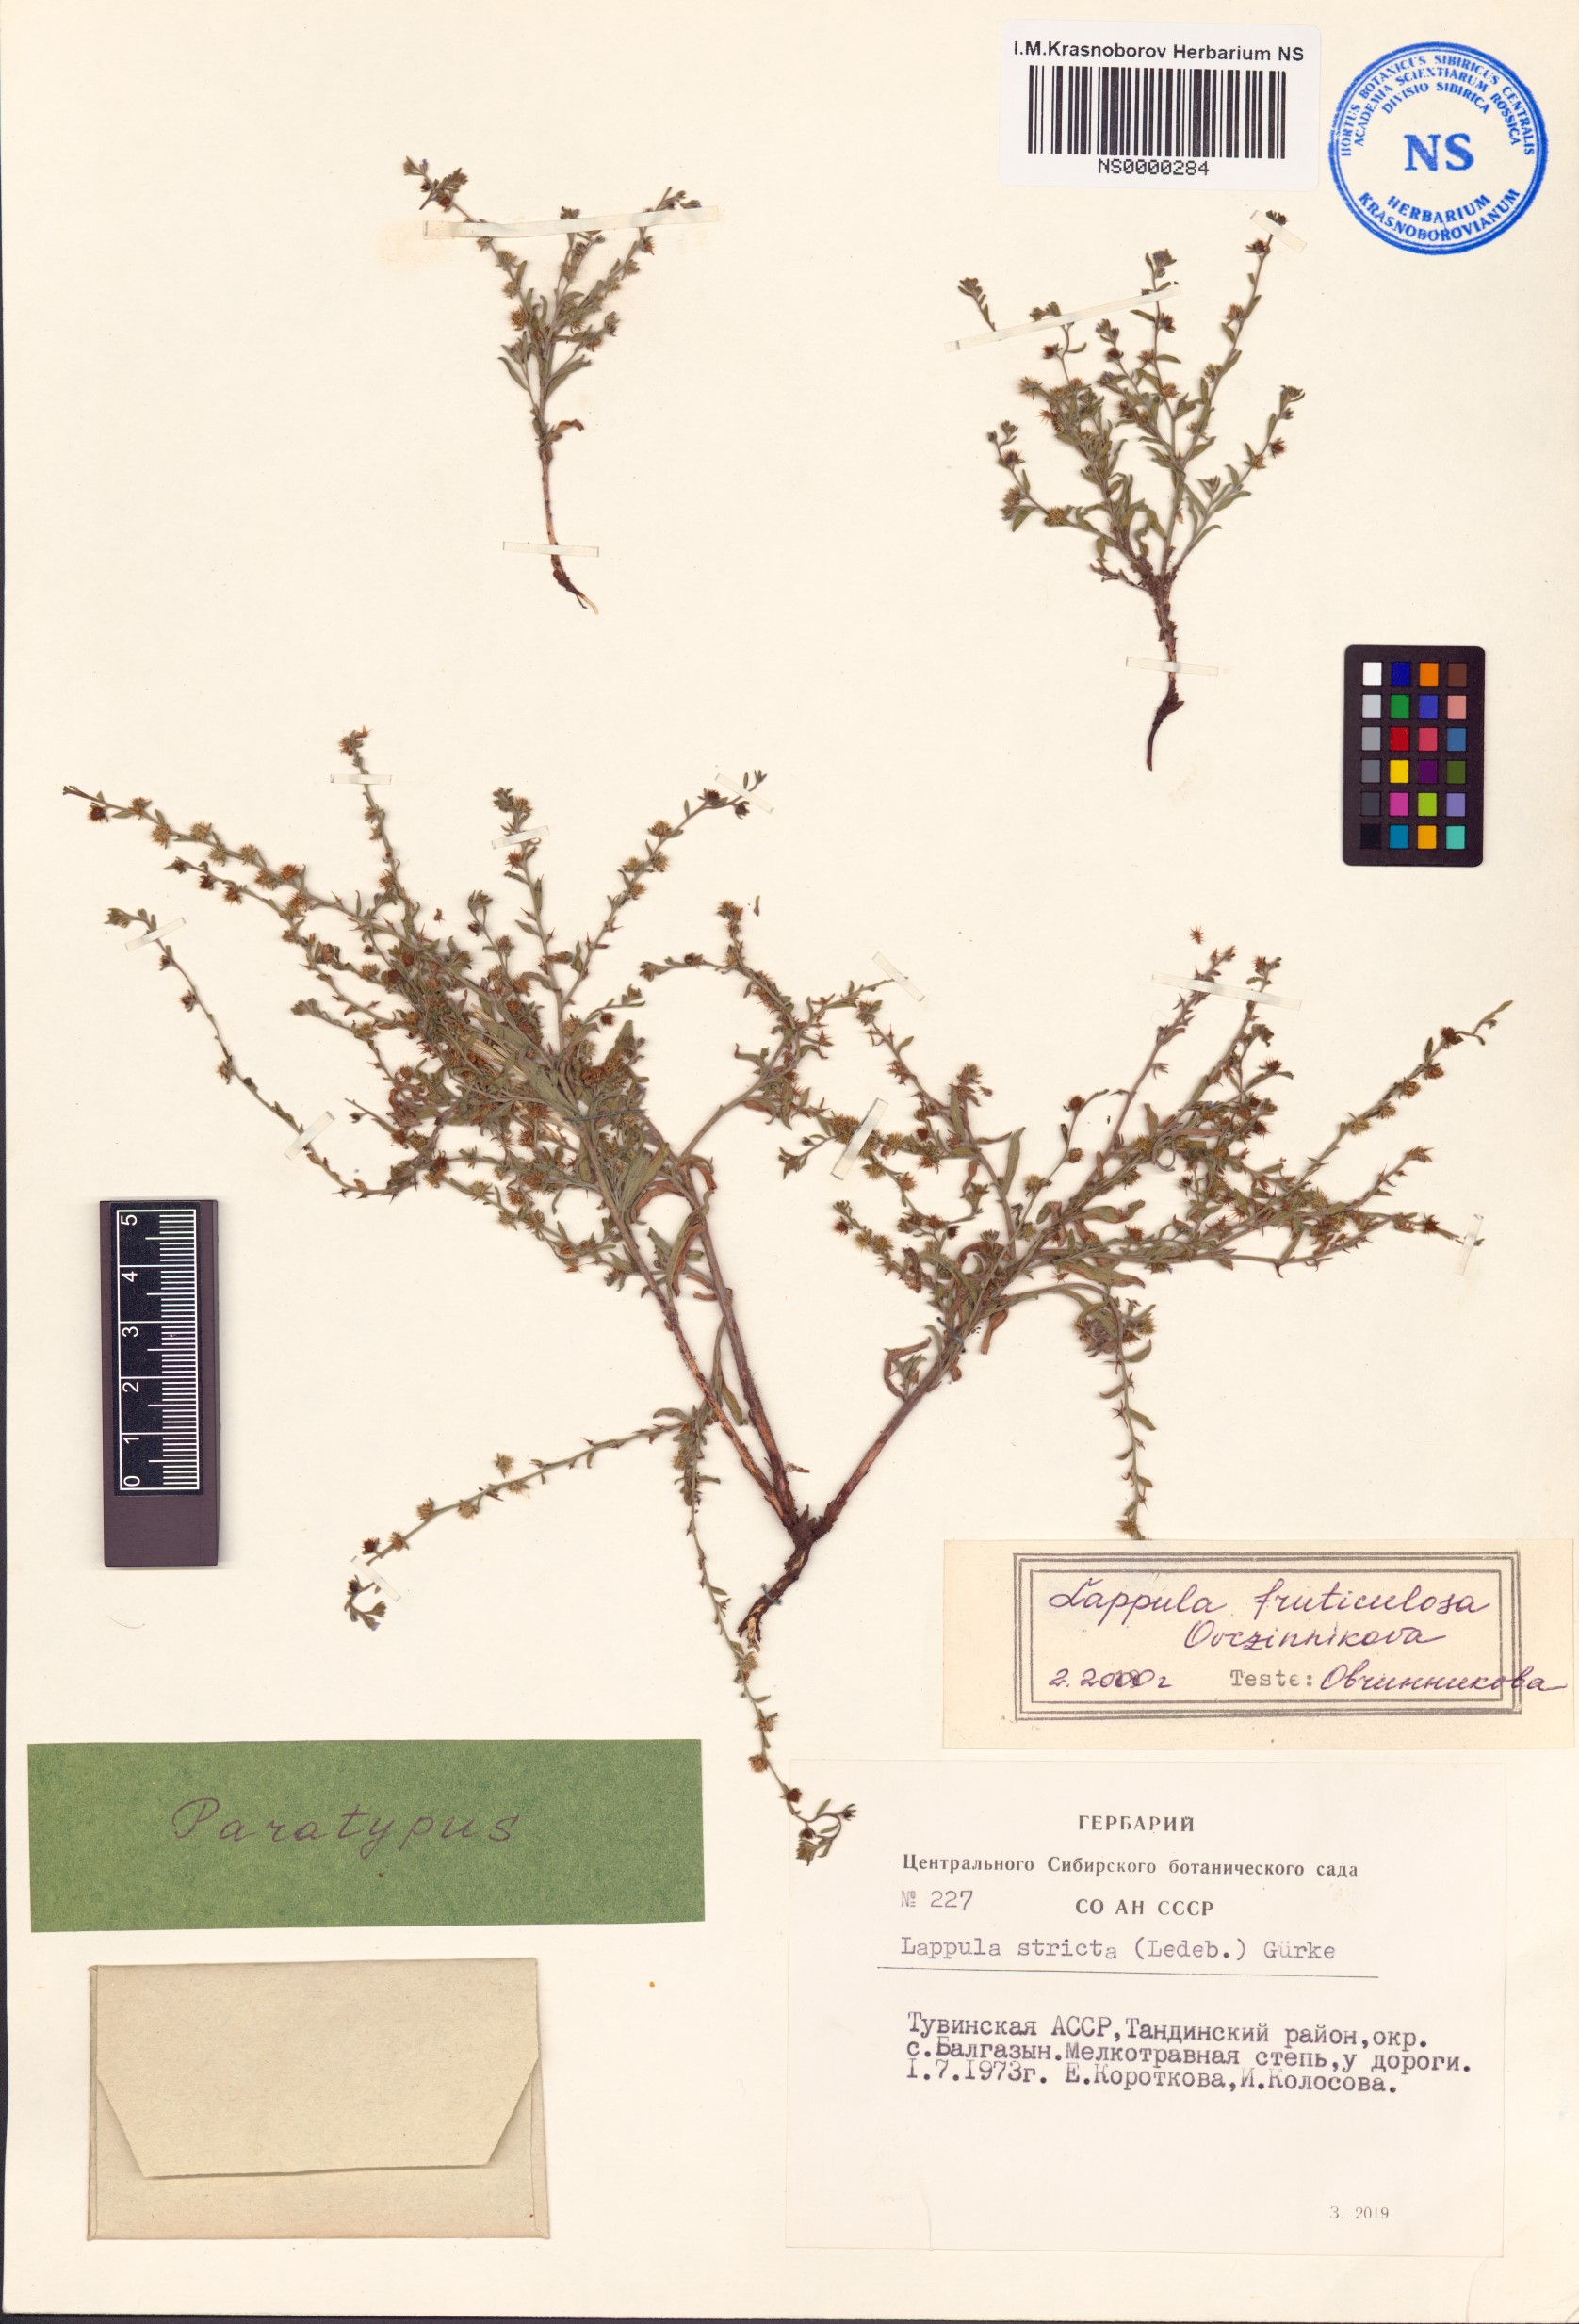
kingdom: Plantae
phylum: Tracheophyta
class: Magnoliopsida
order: Boraginales
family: Boraginaceae
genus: Lappula
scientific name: Lappula fruticulosa
